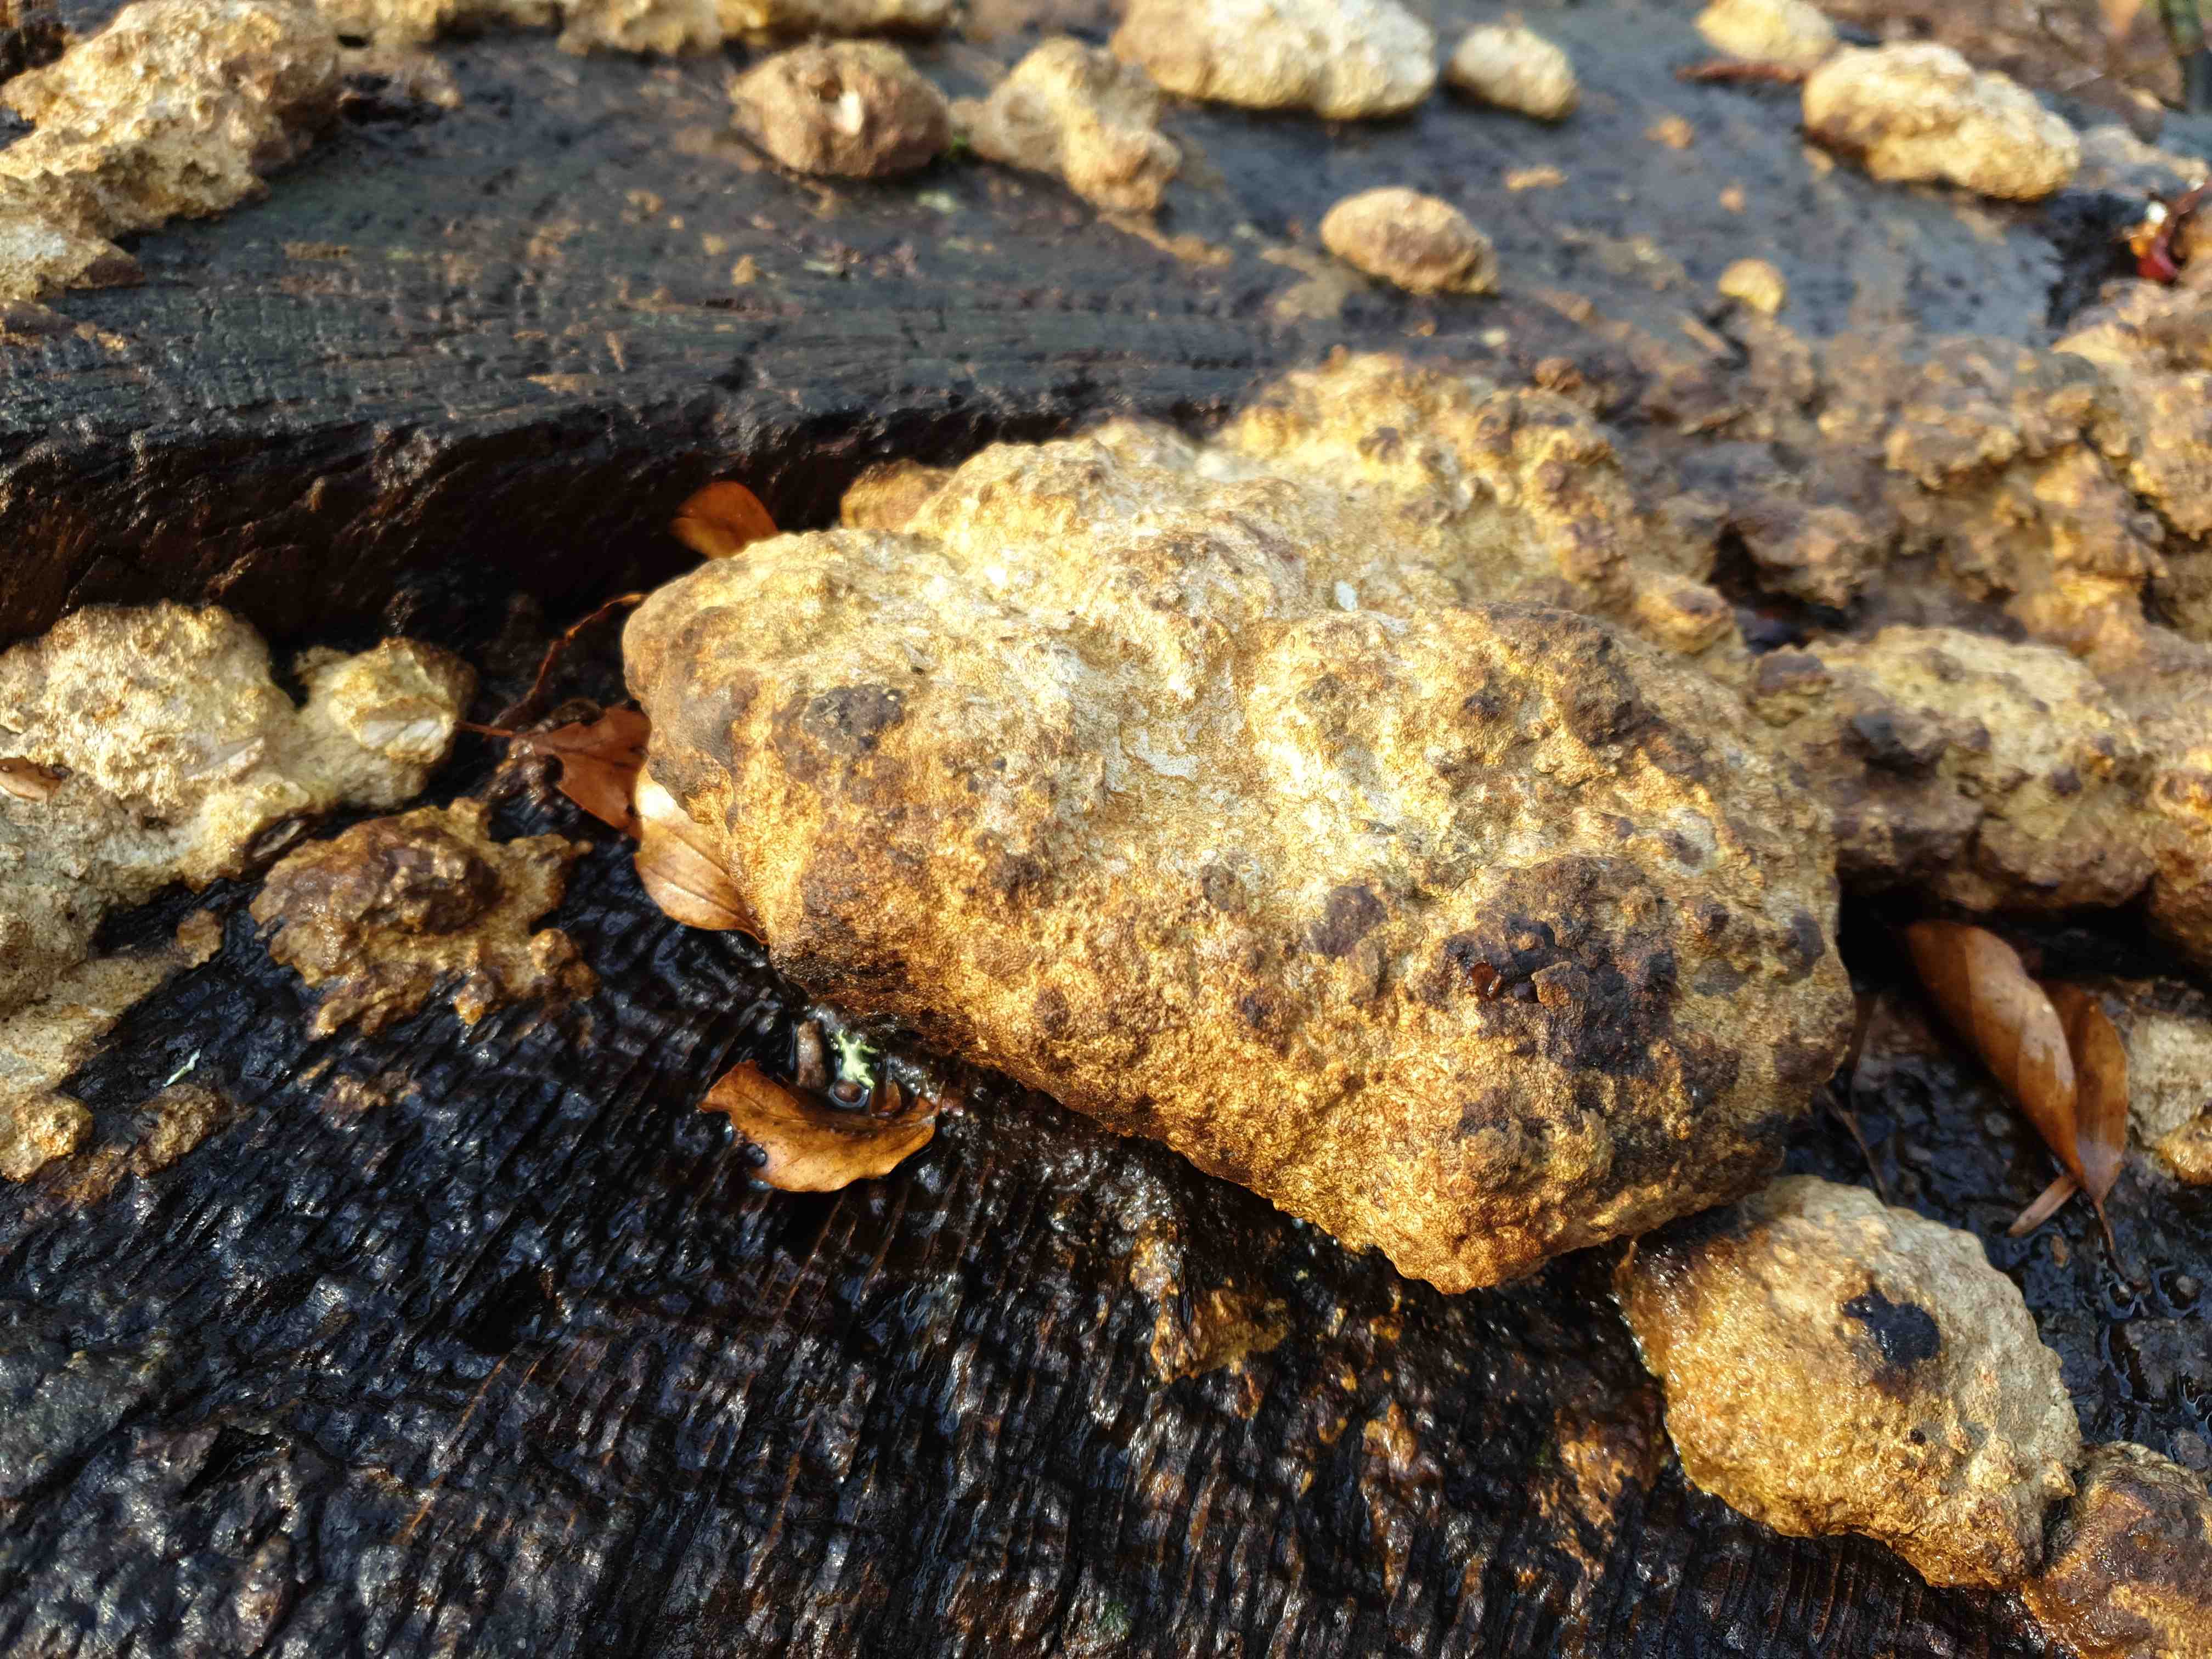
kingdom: Fungi
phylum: Basidiomycota
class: Agaricomycetes
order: Polyporales
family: Fomitopsidaceae
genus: Daedalea
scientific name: Daedalea quercina
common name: ege-labyrintsvamp
